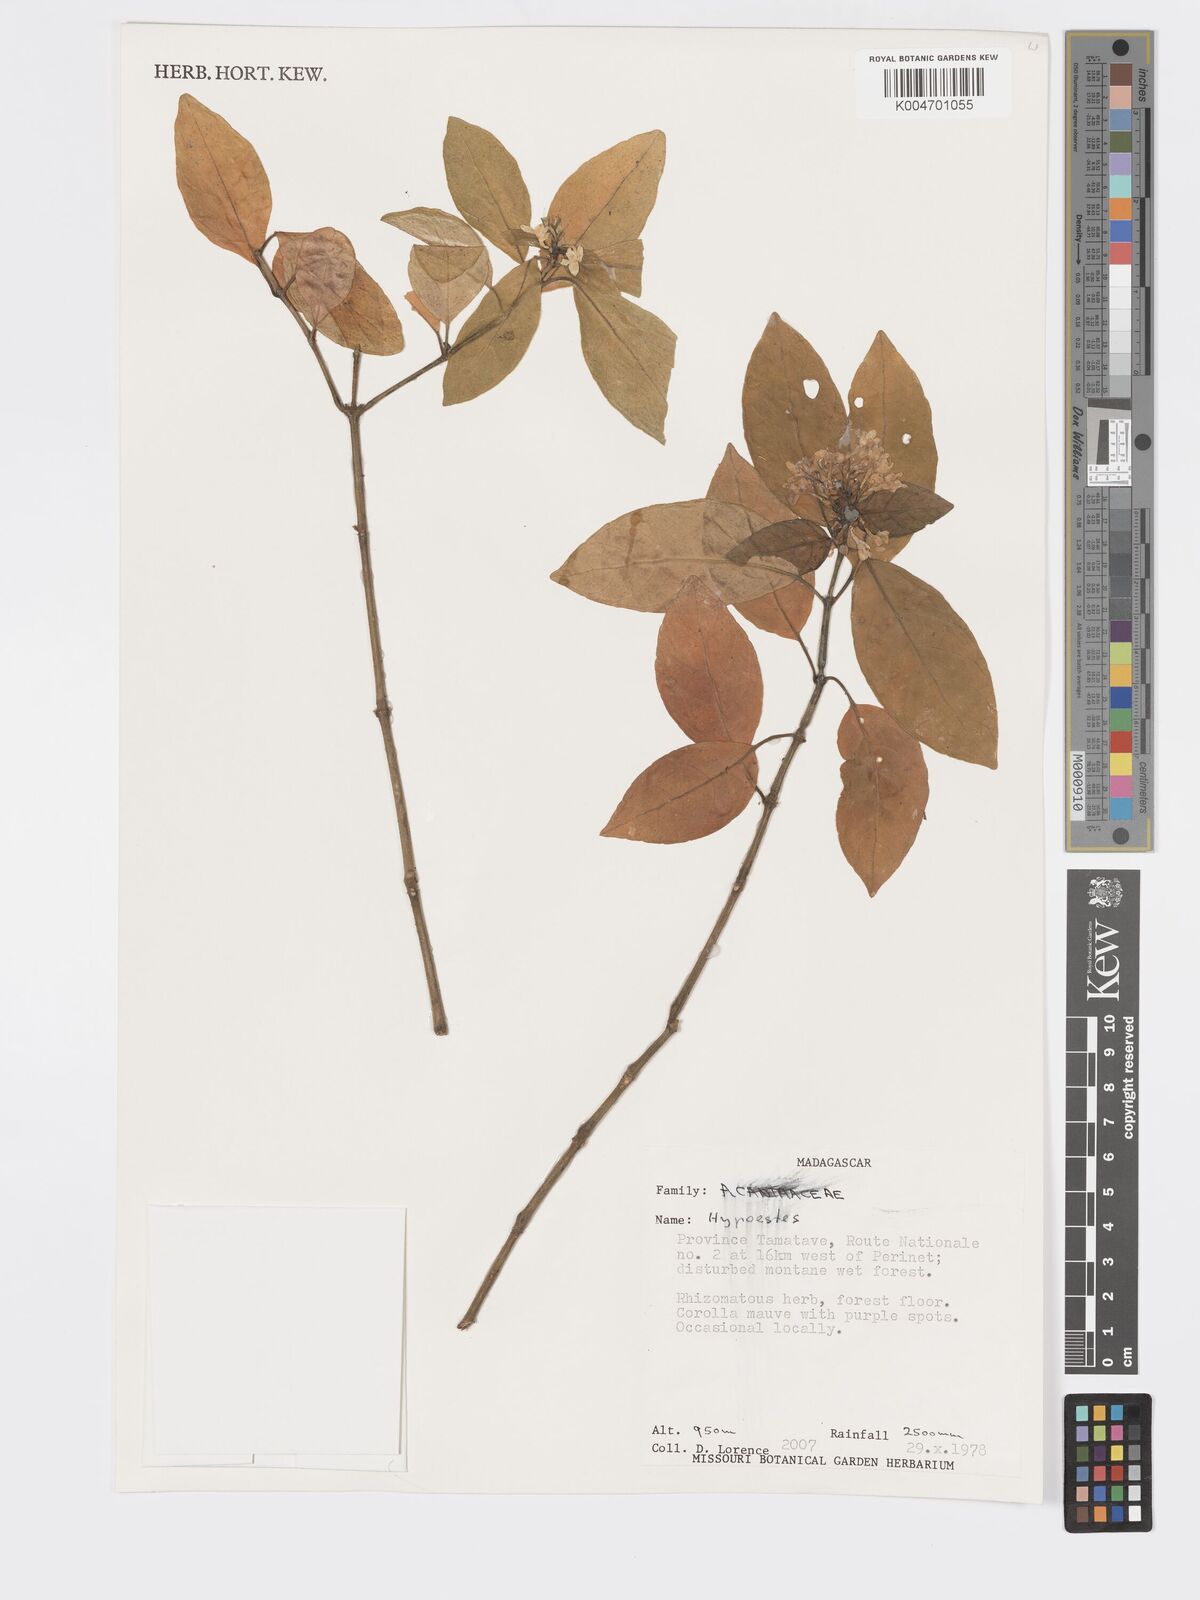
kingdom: Plantae
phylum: Tracheophyta
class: Magnoliopsida
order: Lamiales
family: Acanthaceae
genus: Hypoestes
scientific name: Hypoestes
